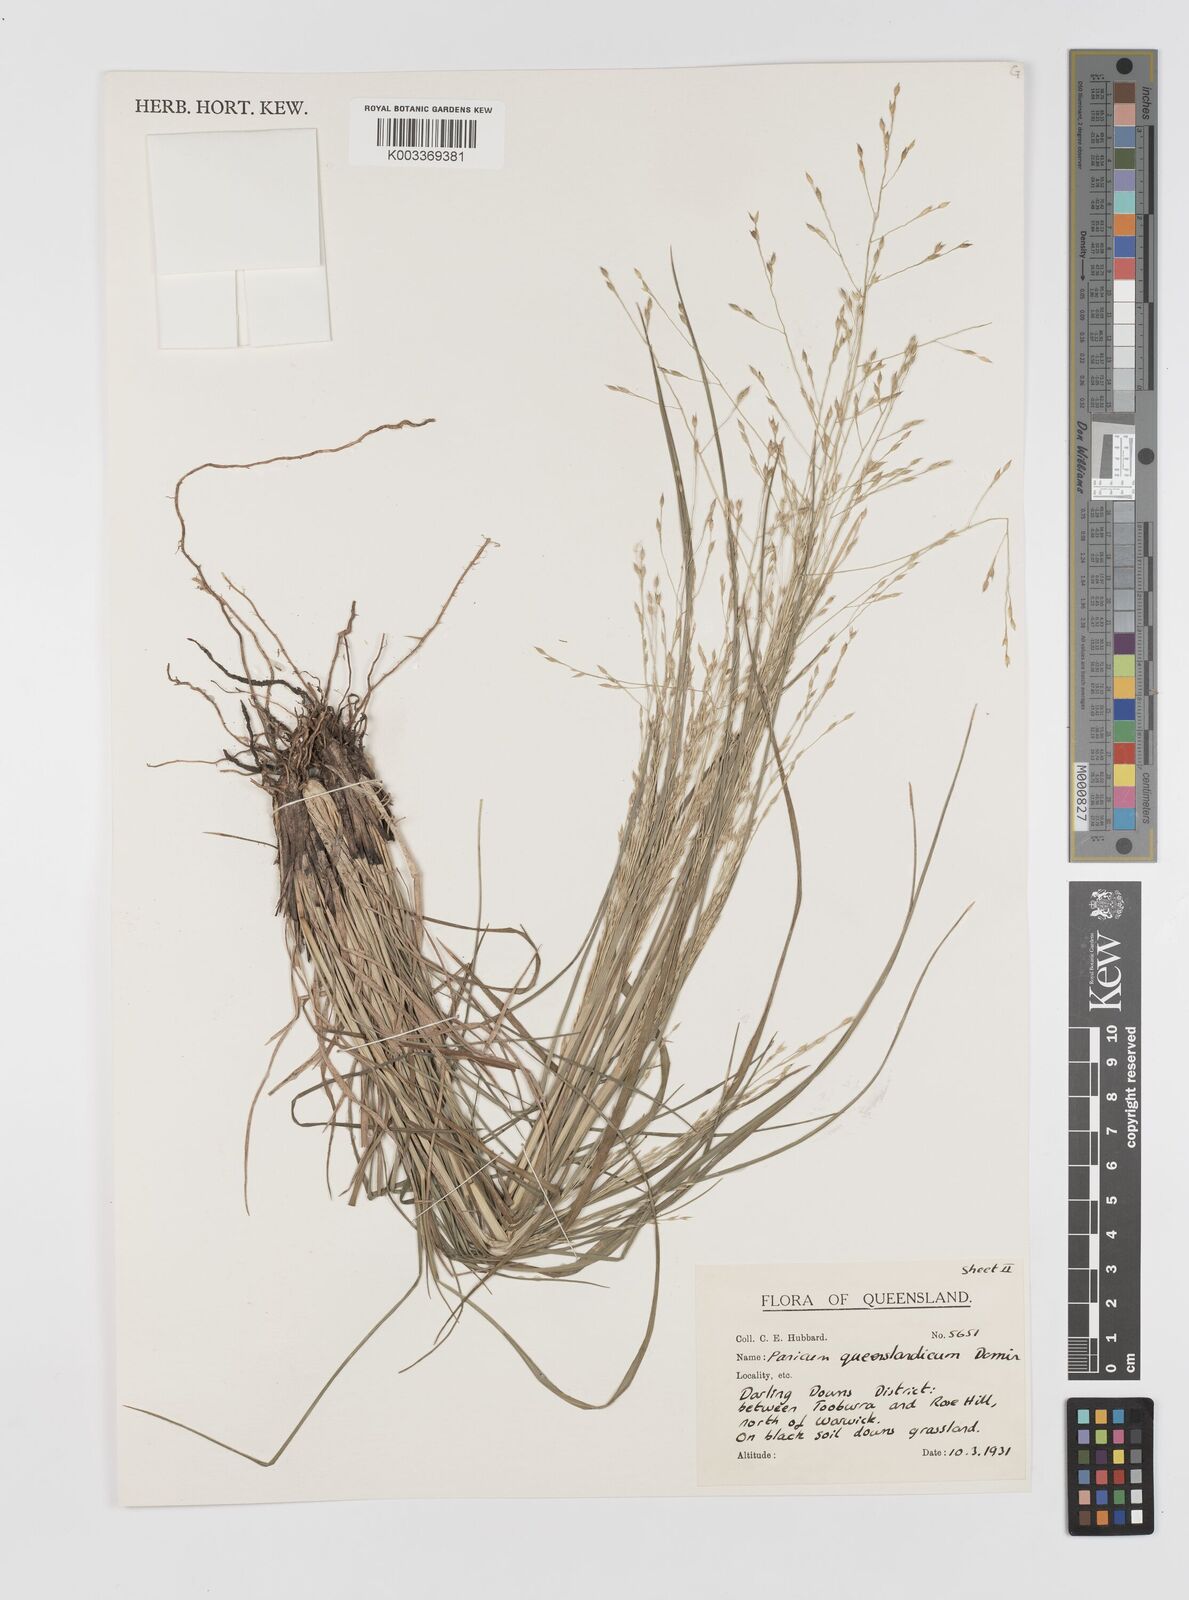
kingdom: Plantae
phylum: Tracheophyta
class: Liliopsida
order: Poales
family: Poaceae
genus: Panicum
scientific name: Panicum queenslandicum
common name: Yabila grass
